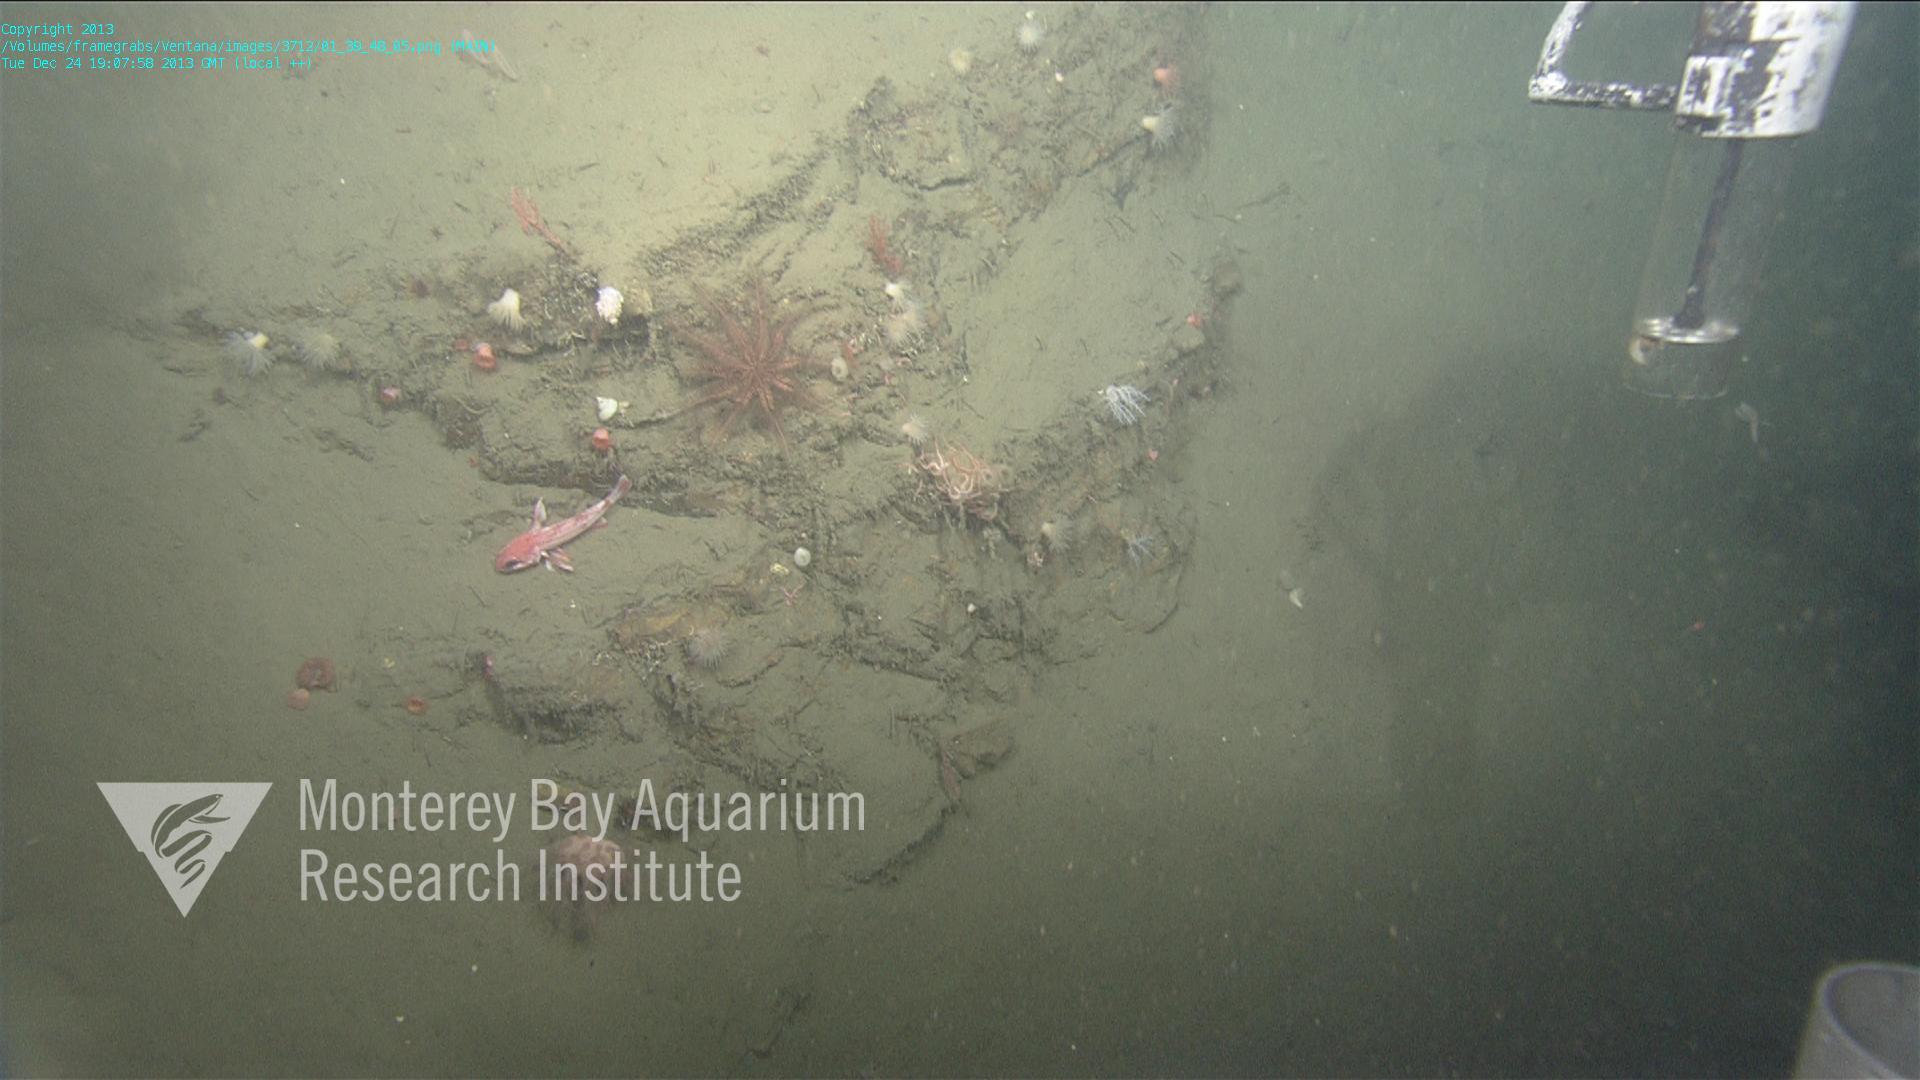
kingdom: Animalia
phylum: Cnidaria
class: Anthozoa
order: Scleralcyonacea
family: Coralliidae
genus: Heteropolypus
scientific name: Heteropolypus ritteri
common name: Ritter's soft coral
